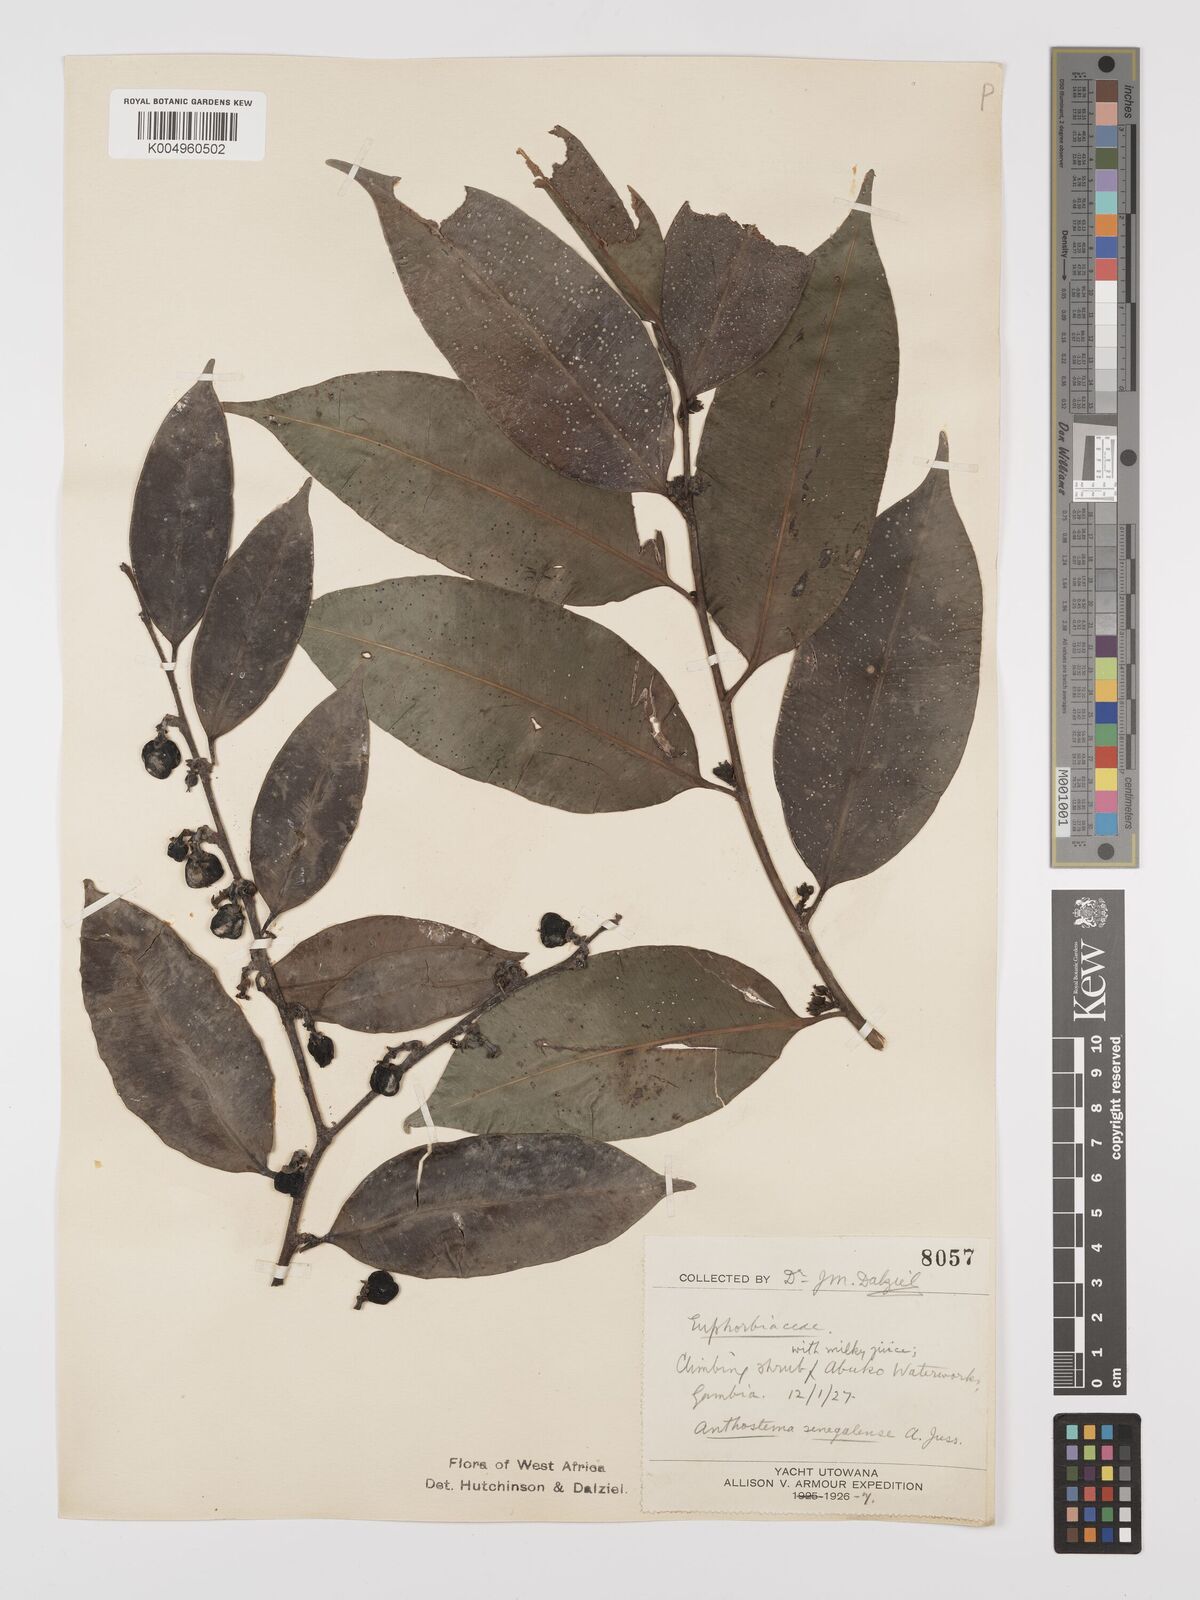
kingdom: Plantae
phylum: Tracheophyta
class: Magnoliopsida
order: Malpighiales
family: Euphorbiaceae
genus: Anthostema
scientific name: Anthostema senegalense
